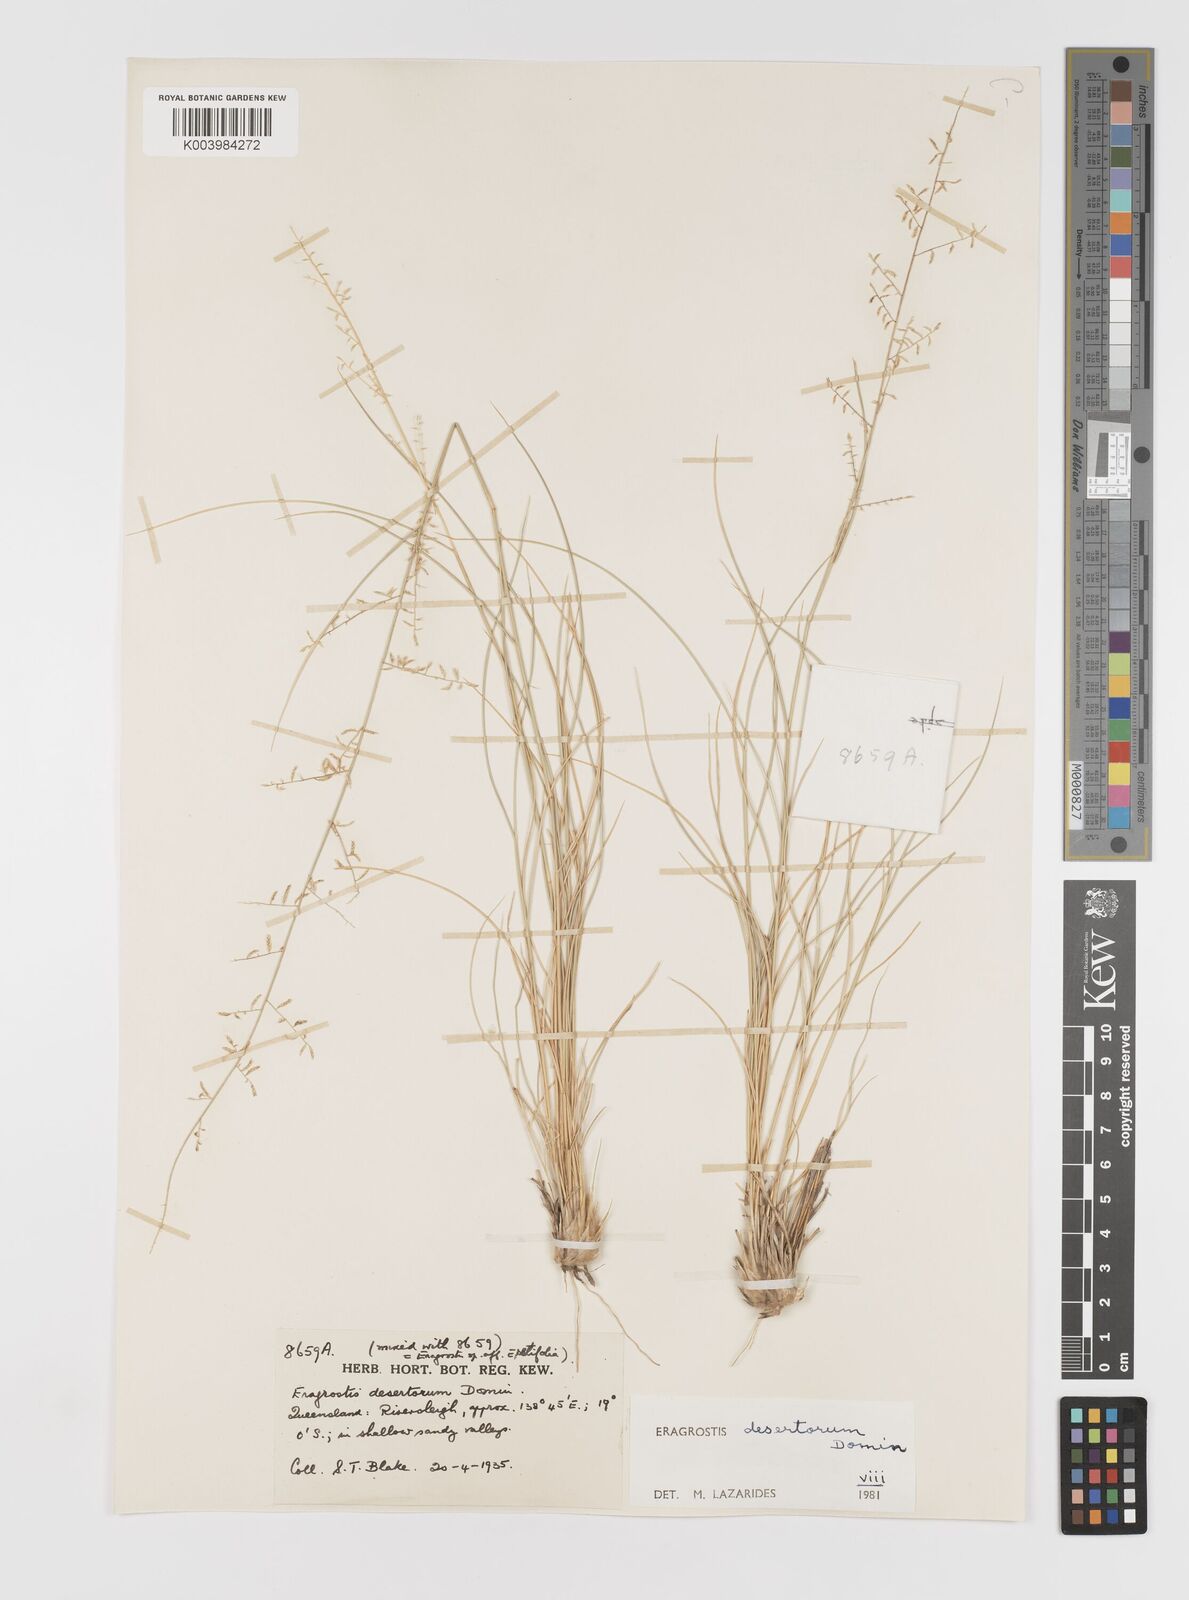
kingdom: Plantae
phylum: Tracheophyta
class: Liliopsida
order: Poales
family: Poaceae
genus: Eragrostis
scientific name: Eragrostis desertorum
